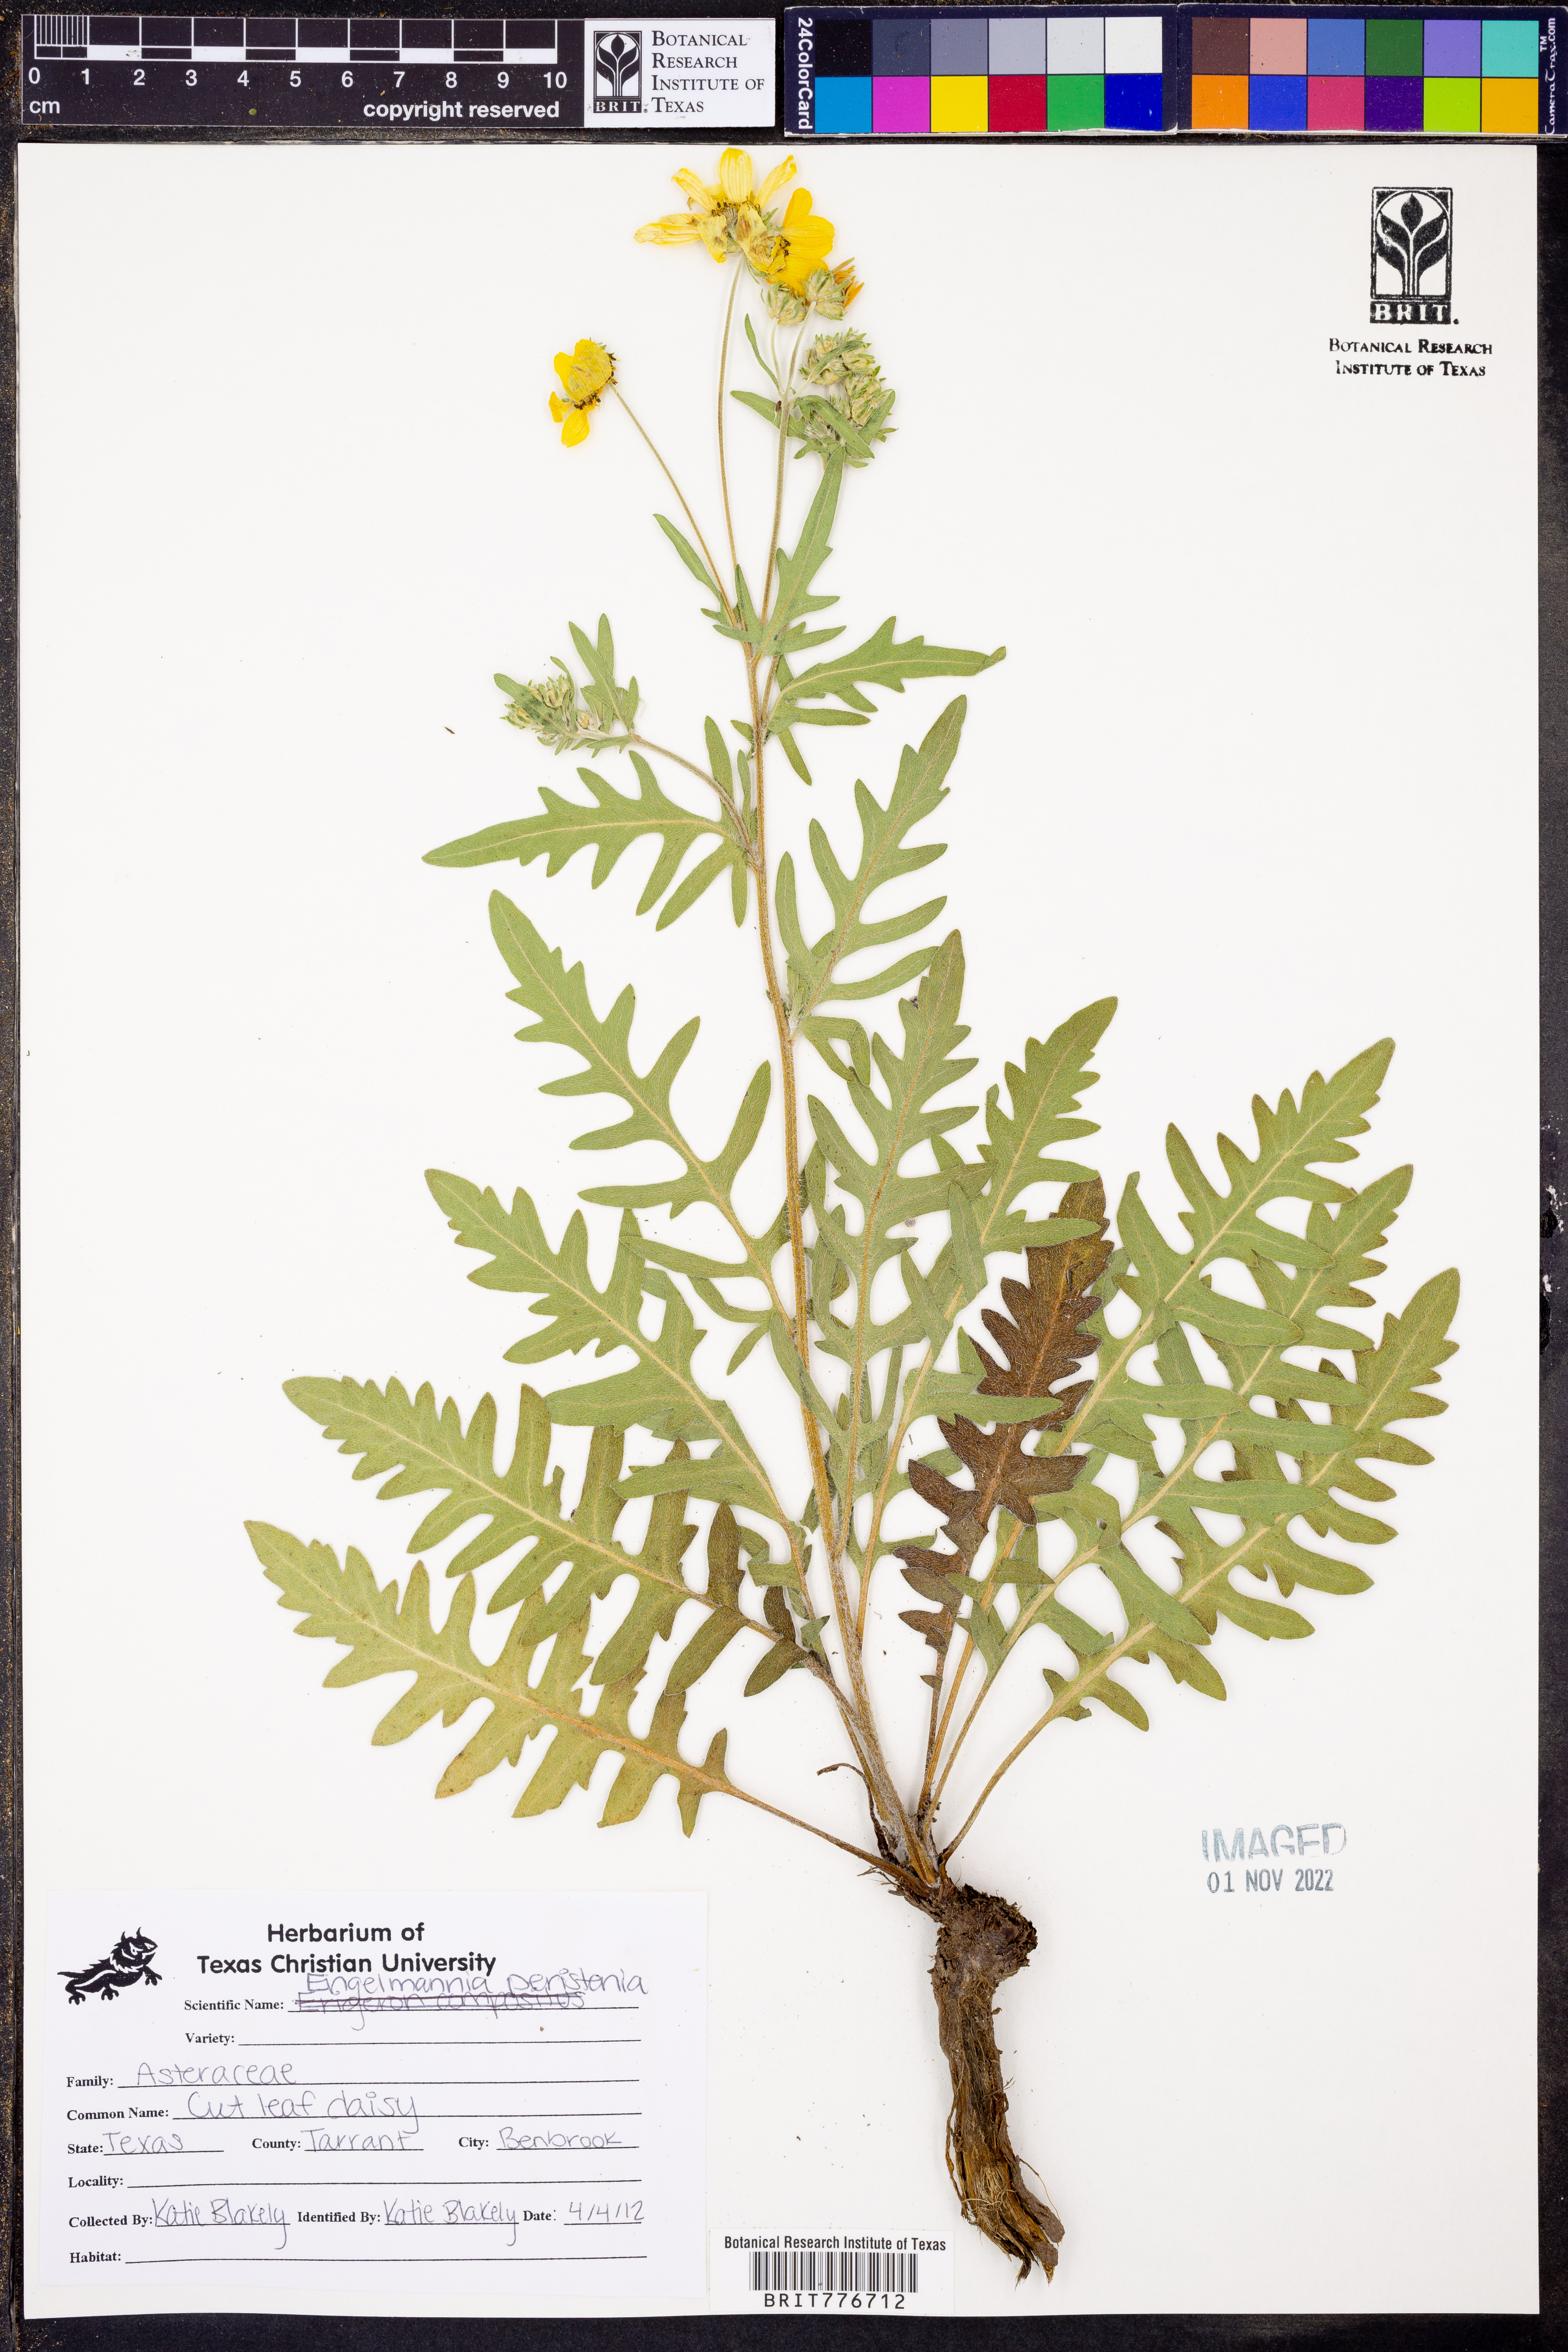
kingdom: Plantae
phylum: Tracheophyta
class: Magnoliopsida
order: Asterales
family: Asteraceae
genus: Engelmannia
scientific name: Engelmannia peristenia
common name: Engelmann's daisy
